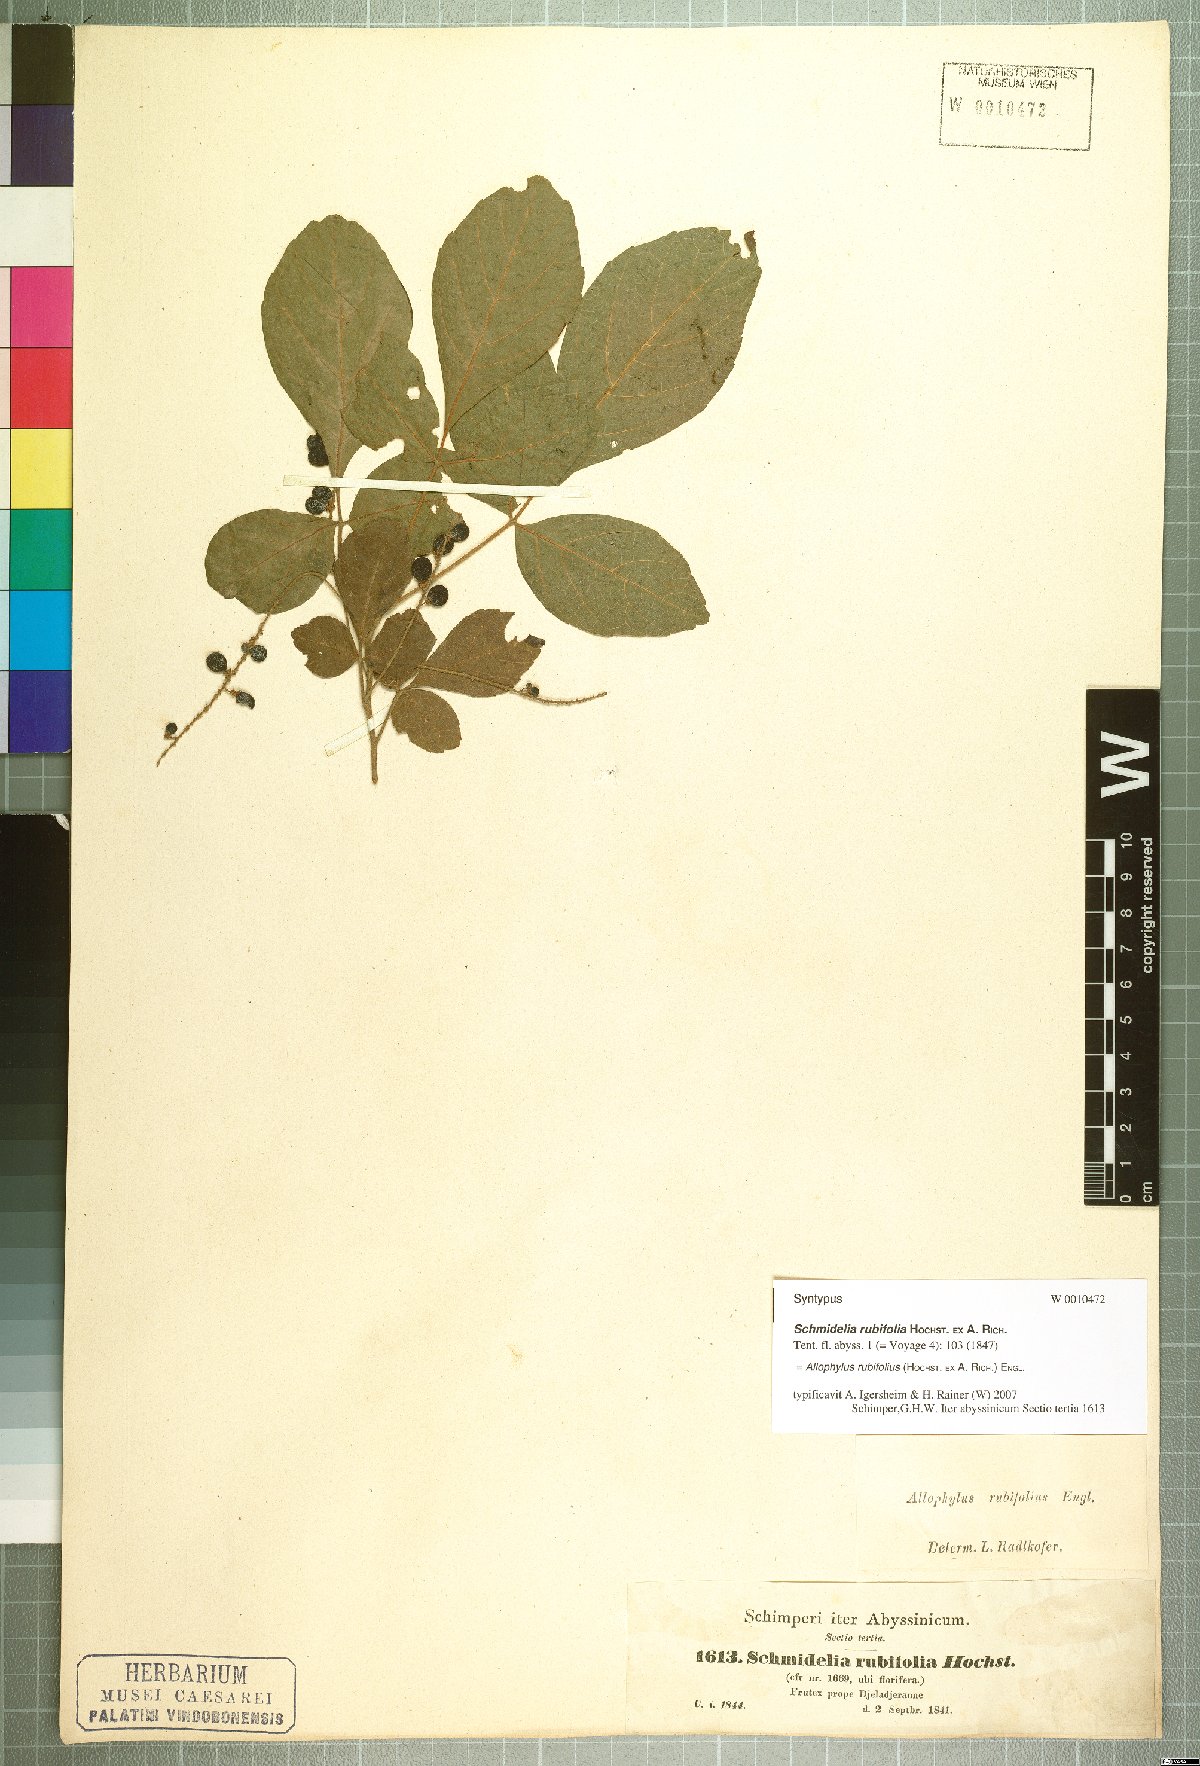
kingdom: Plantae
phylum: Tracheophyta
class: Magnoliopsida
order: Sapindales
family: Sapindaceae
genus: Allophylus
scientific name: Allophylus rubifolius
